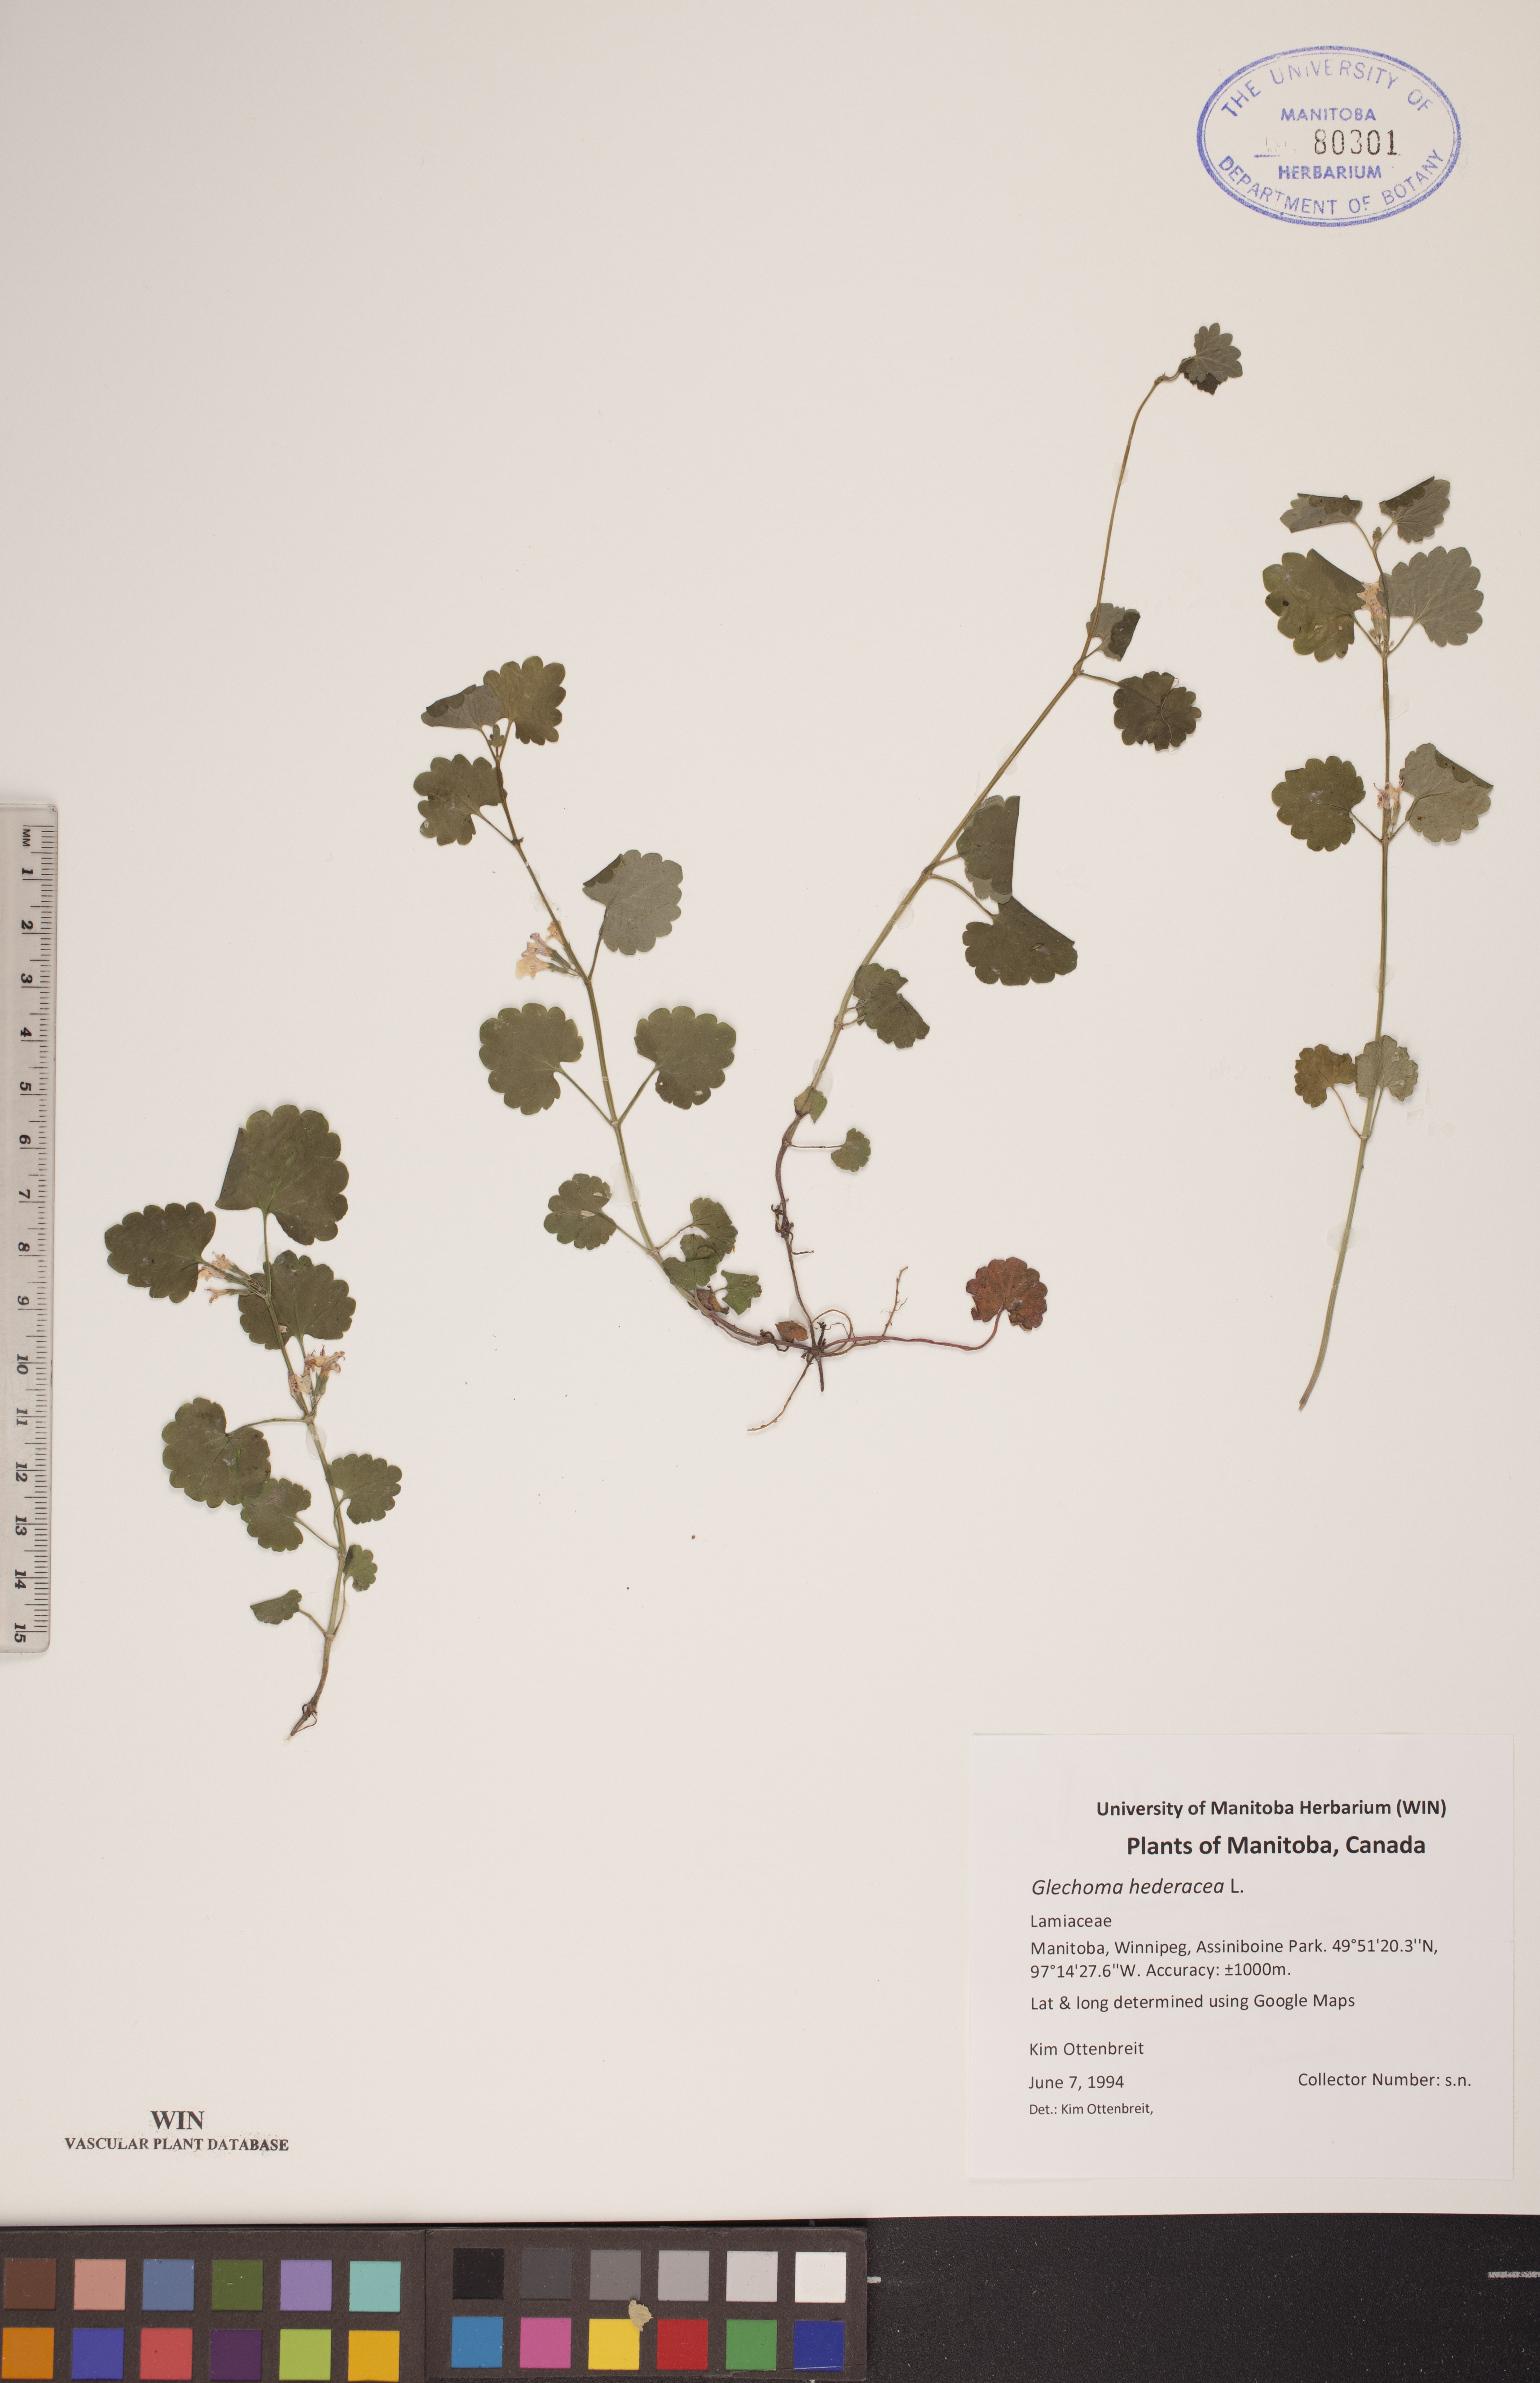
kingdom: Plantae
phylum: Tracheophyta
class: Magnoliopsida
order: Lamiales
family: Lamiaceae
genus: Glechoma
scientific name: Glechoma hederacea
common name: Ground ivy
